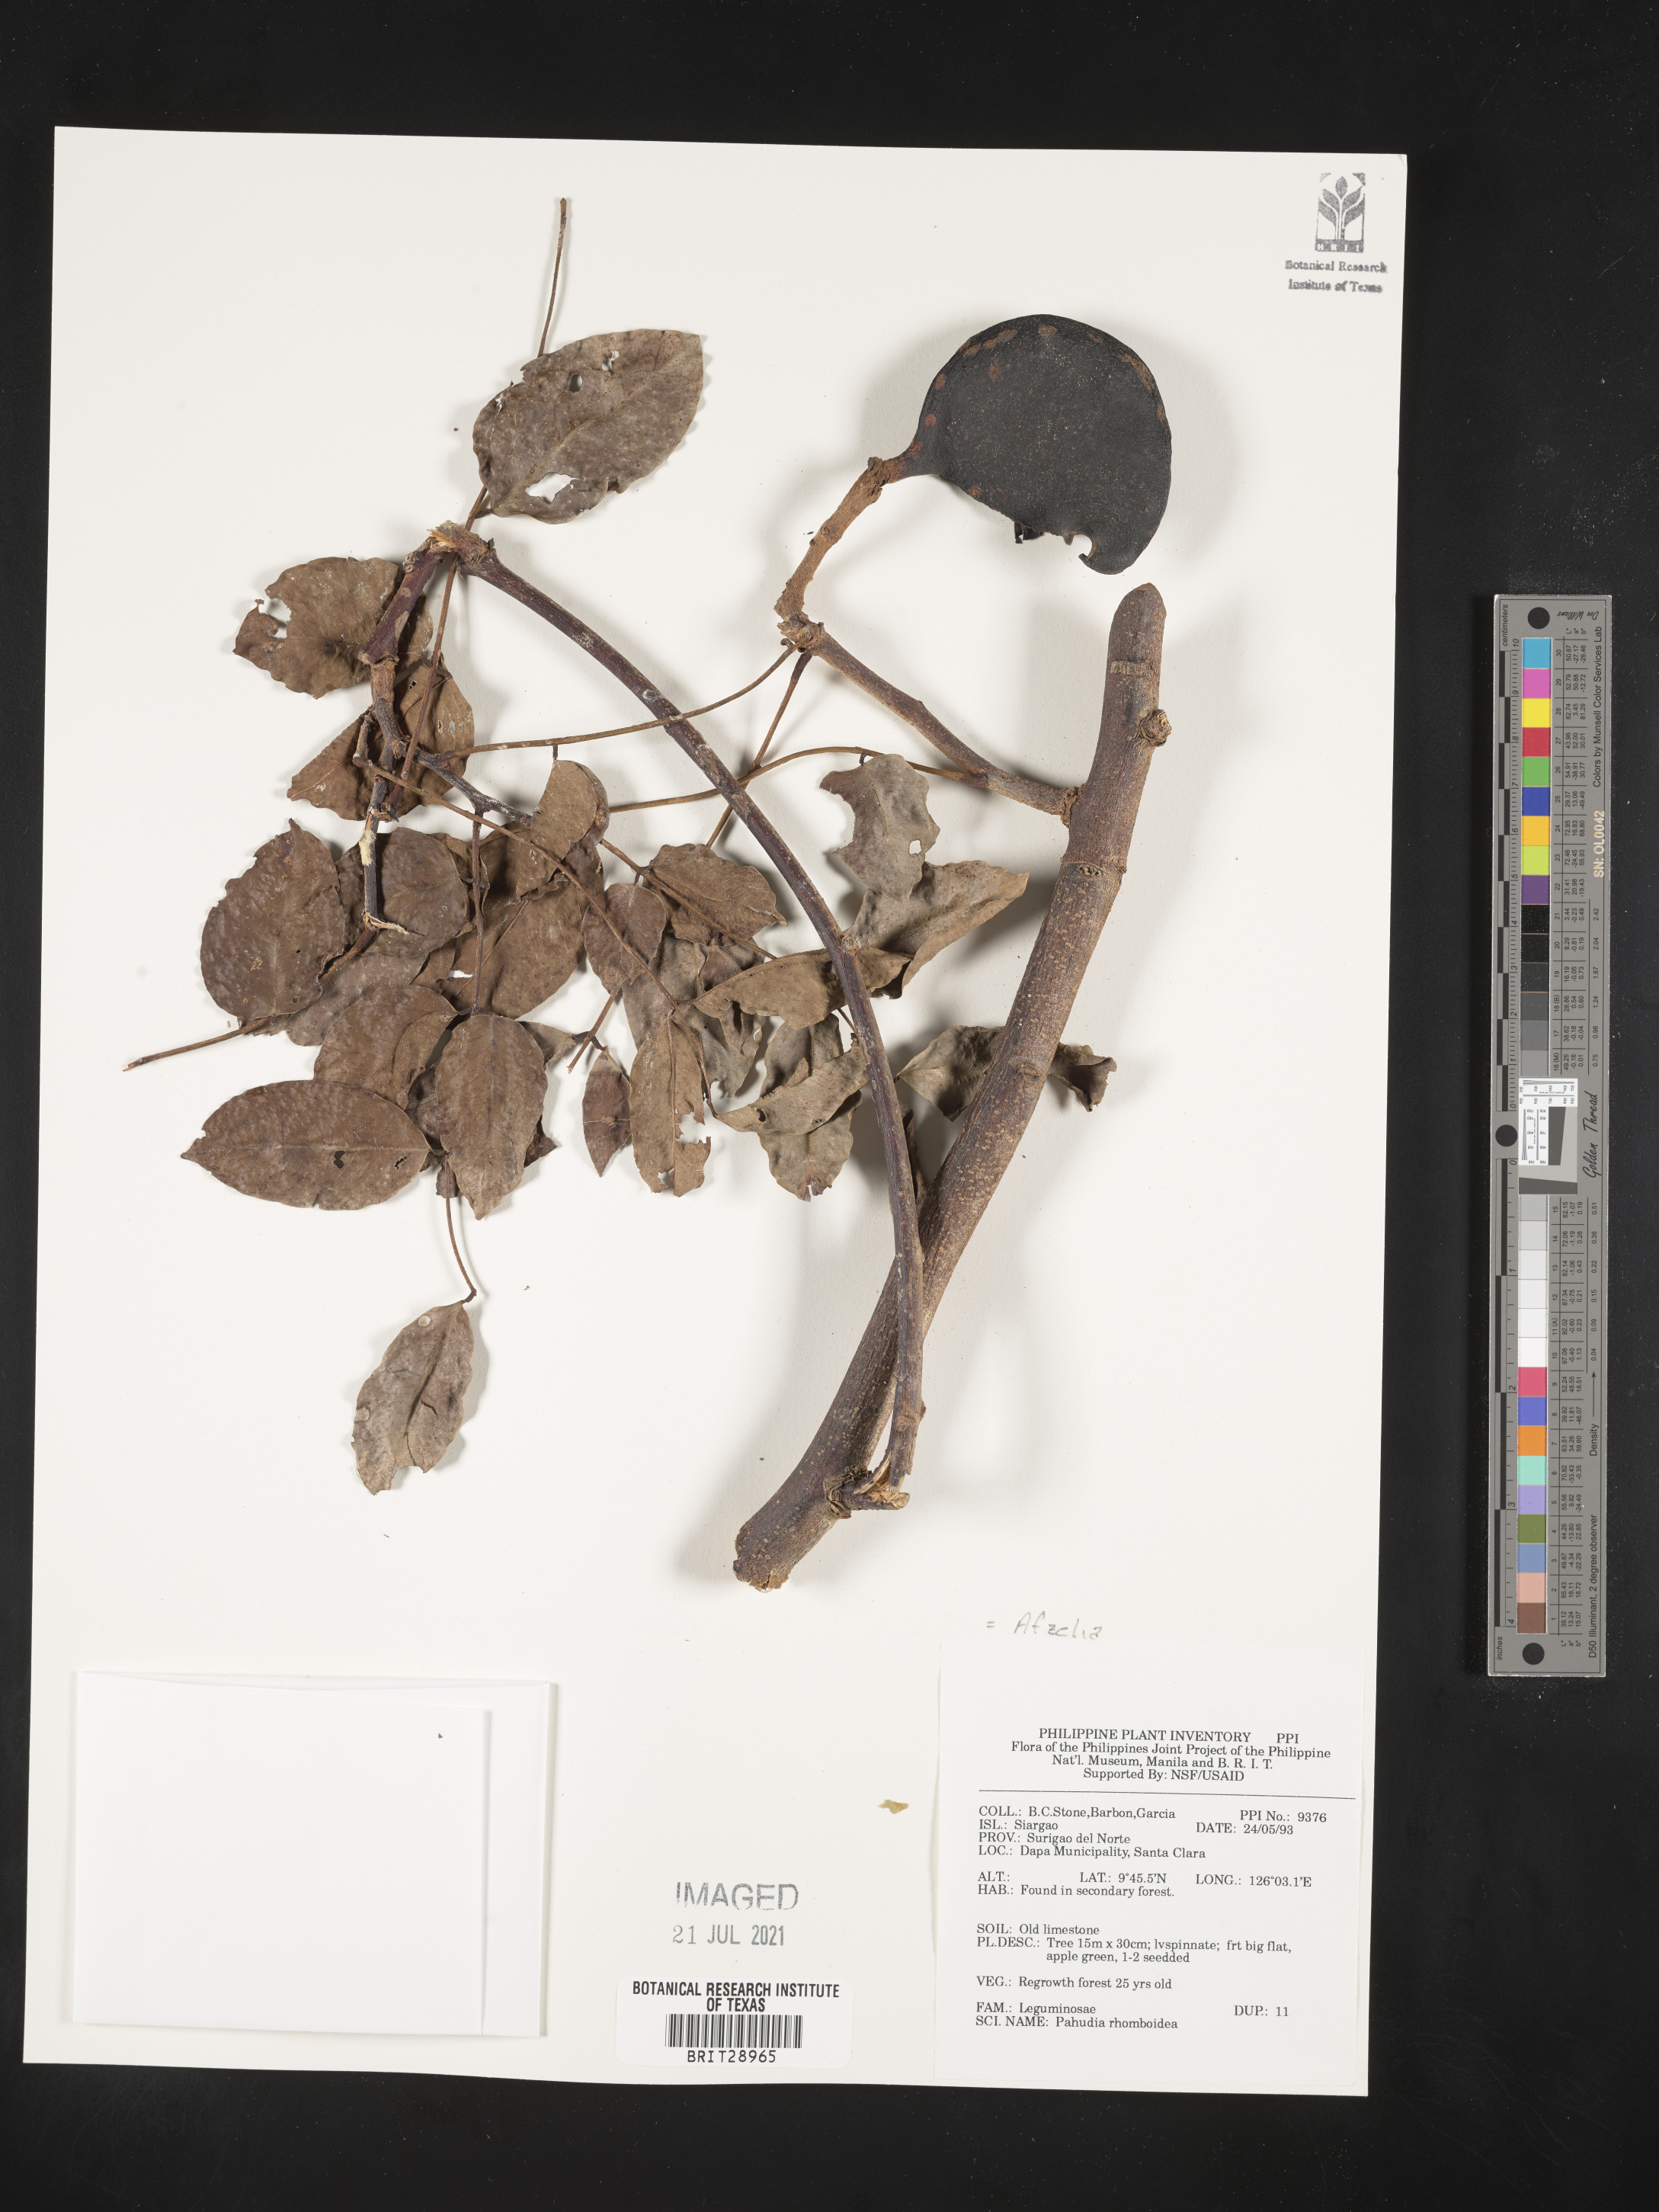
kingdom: Plantae
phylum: Tracheophyta
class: Magnoliopsida
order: Fabales
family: Fabaceae
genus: Afzelia
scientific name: Afzelia rhomboidea
